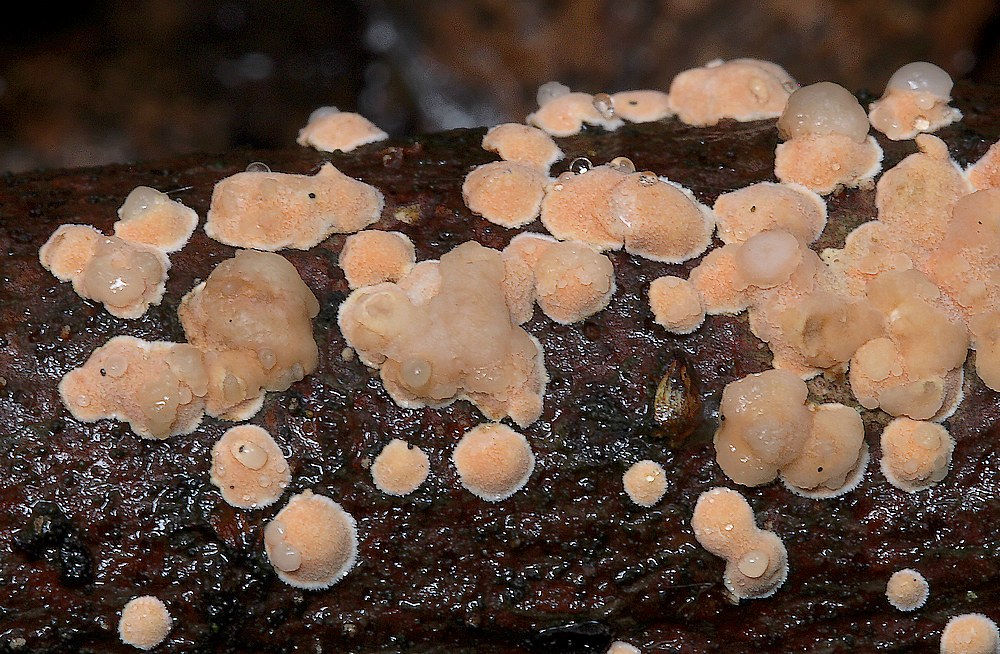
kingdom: Fungi
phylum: Basidiomycota
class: Agaricomycetes
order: Russulales
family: Stereaceae
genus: Aleurodiscus
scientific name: Aleurodiscus amorphus
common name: orange skiveskorpe
